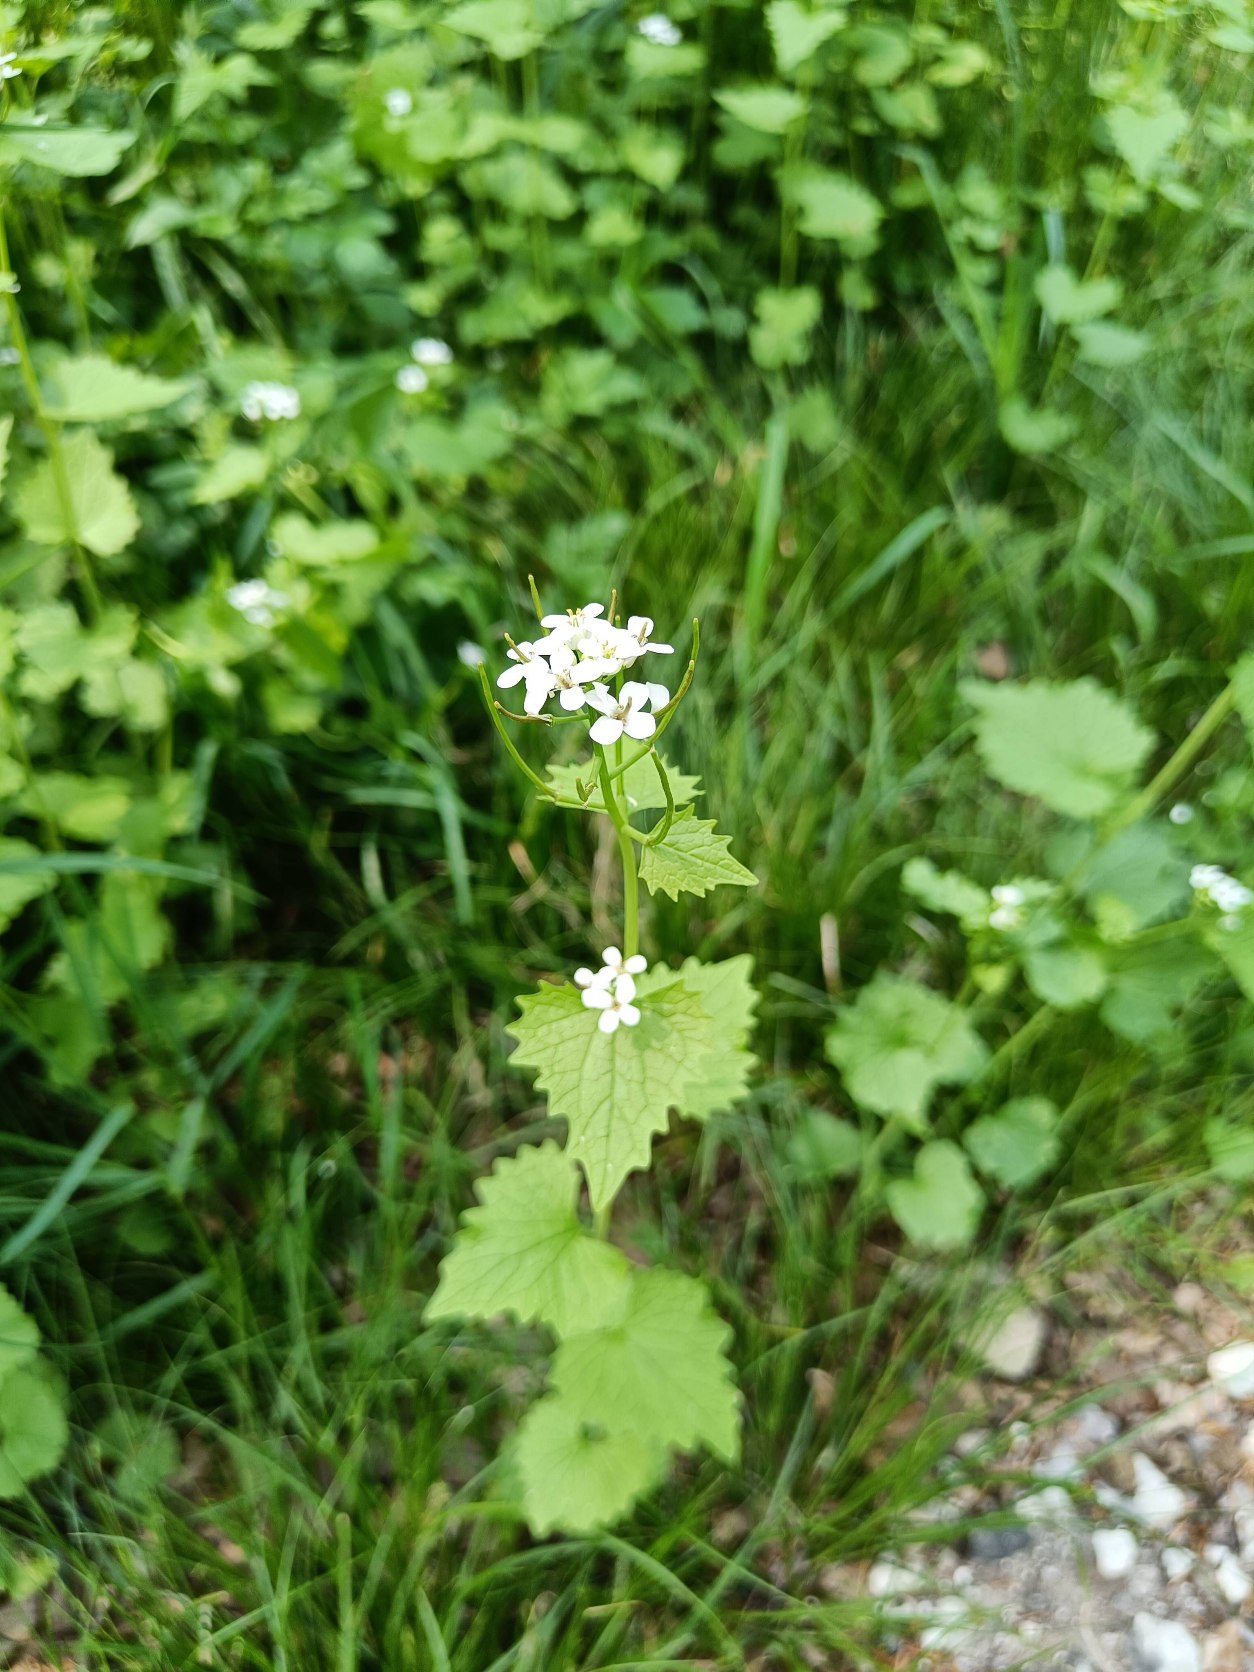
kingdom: Plantae
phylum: Tracheophyta
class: Magnoliopsida
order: Brassicales
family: Brassicaceae
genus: Alliaria
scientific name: Alliaria petiolata
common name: Løgkarse
